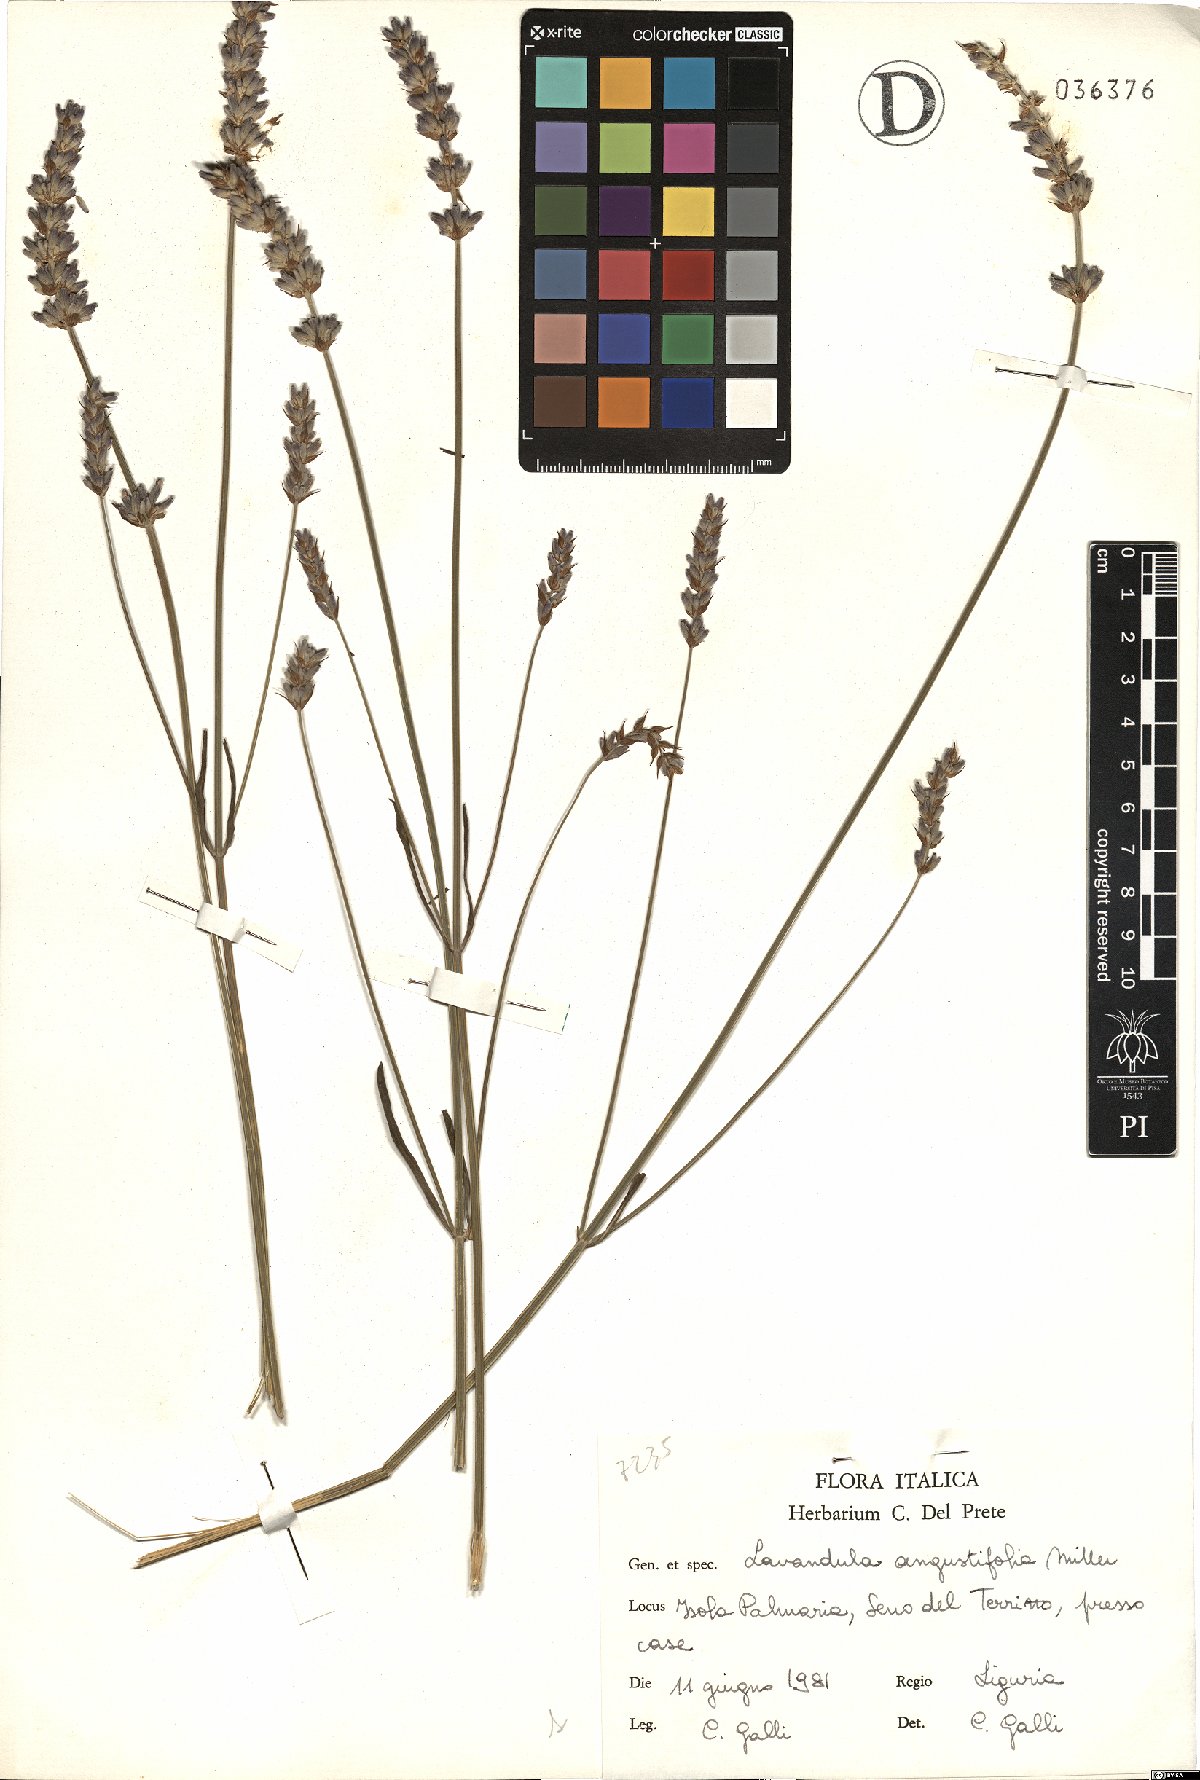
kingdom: Plantae
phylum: Tracheophyta
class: Magnoliopsida
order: Lamiales
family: Lamiaceae
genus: Lavandula
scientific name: Lavandula angustifolia
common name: Garden lavender
